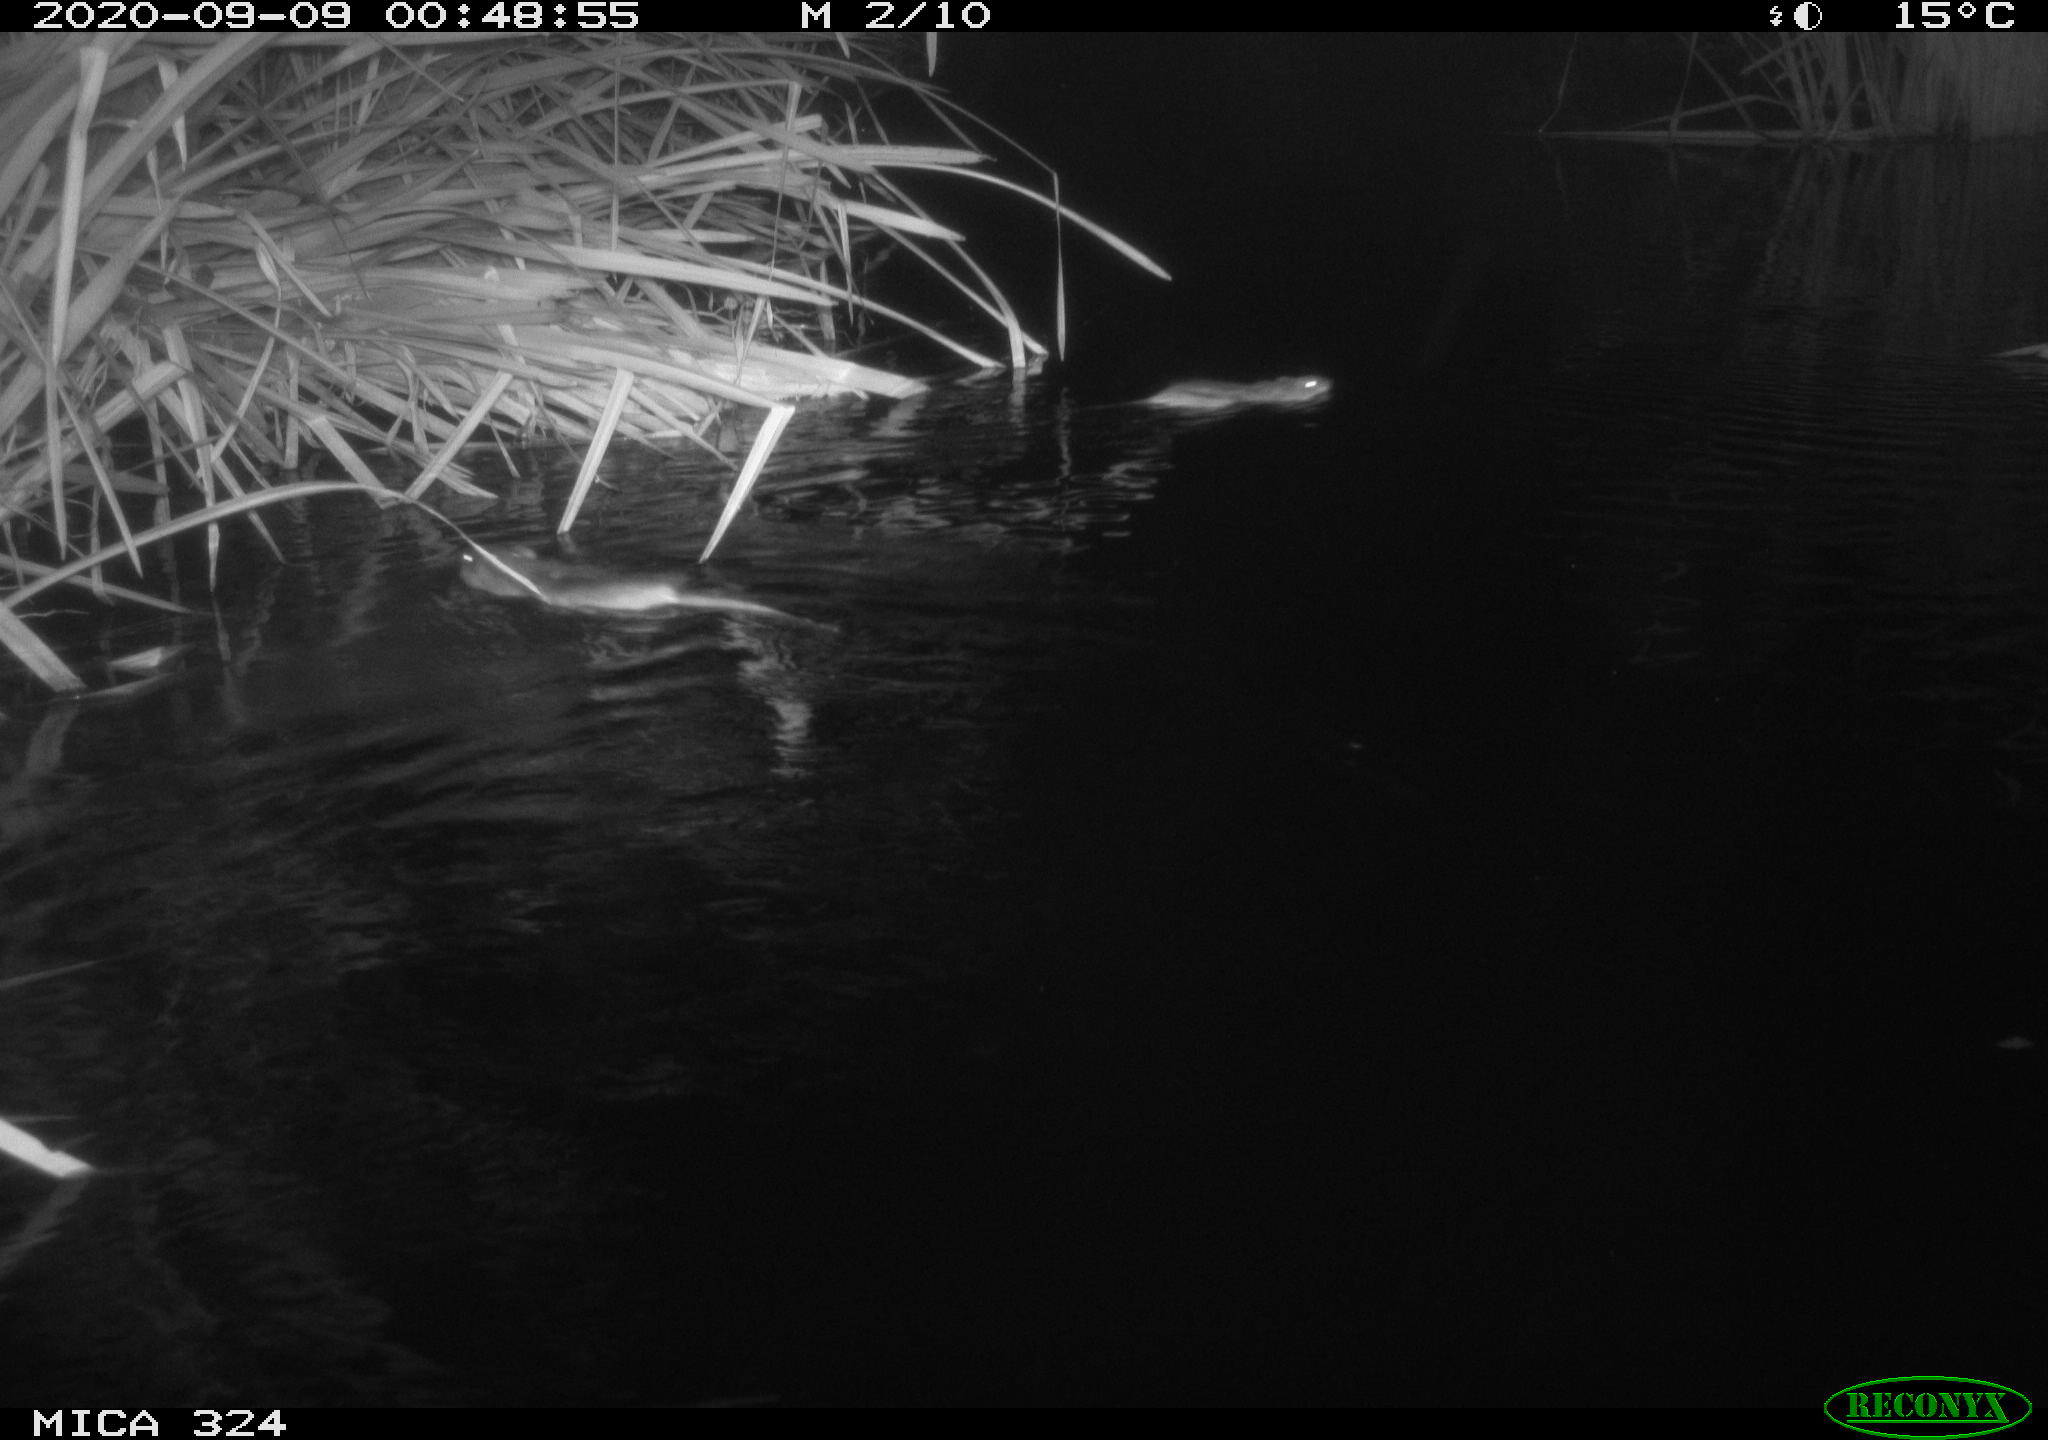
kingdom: Animalia
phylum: Chordata
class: Mammalia
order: Rodentia
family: Cricetidae
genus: Ondatra
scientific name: Ondatra zibethicus
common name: Muskrat
